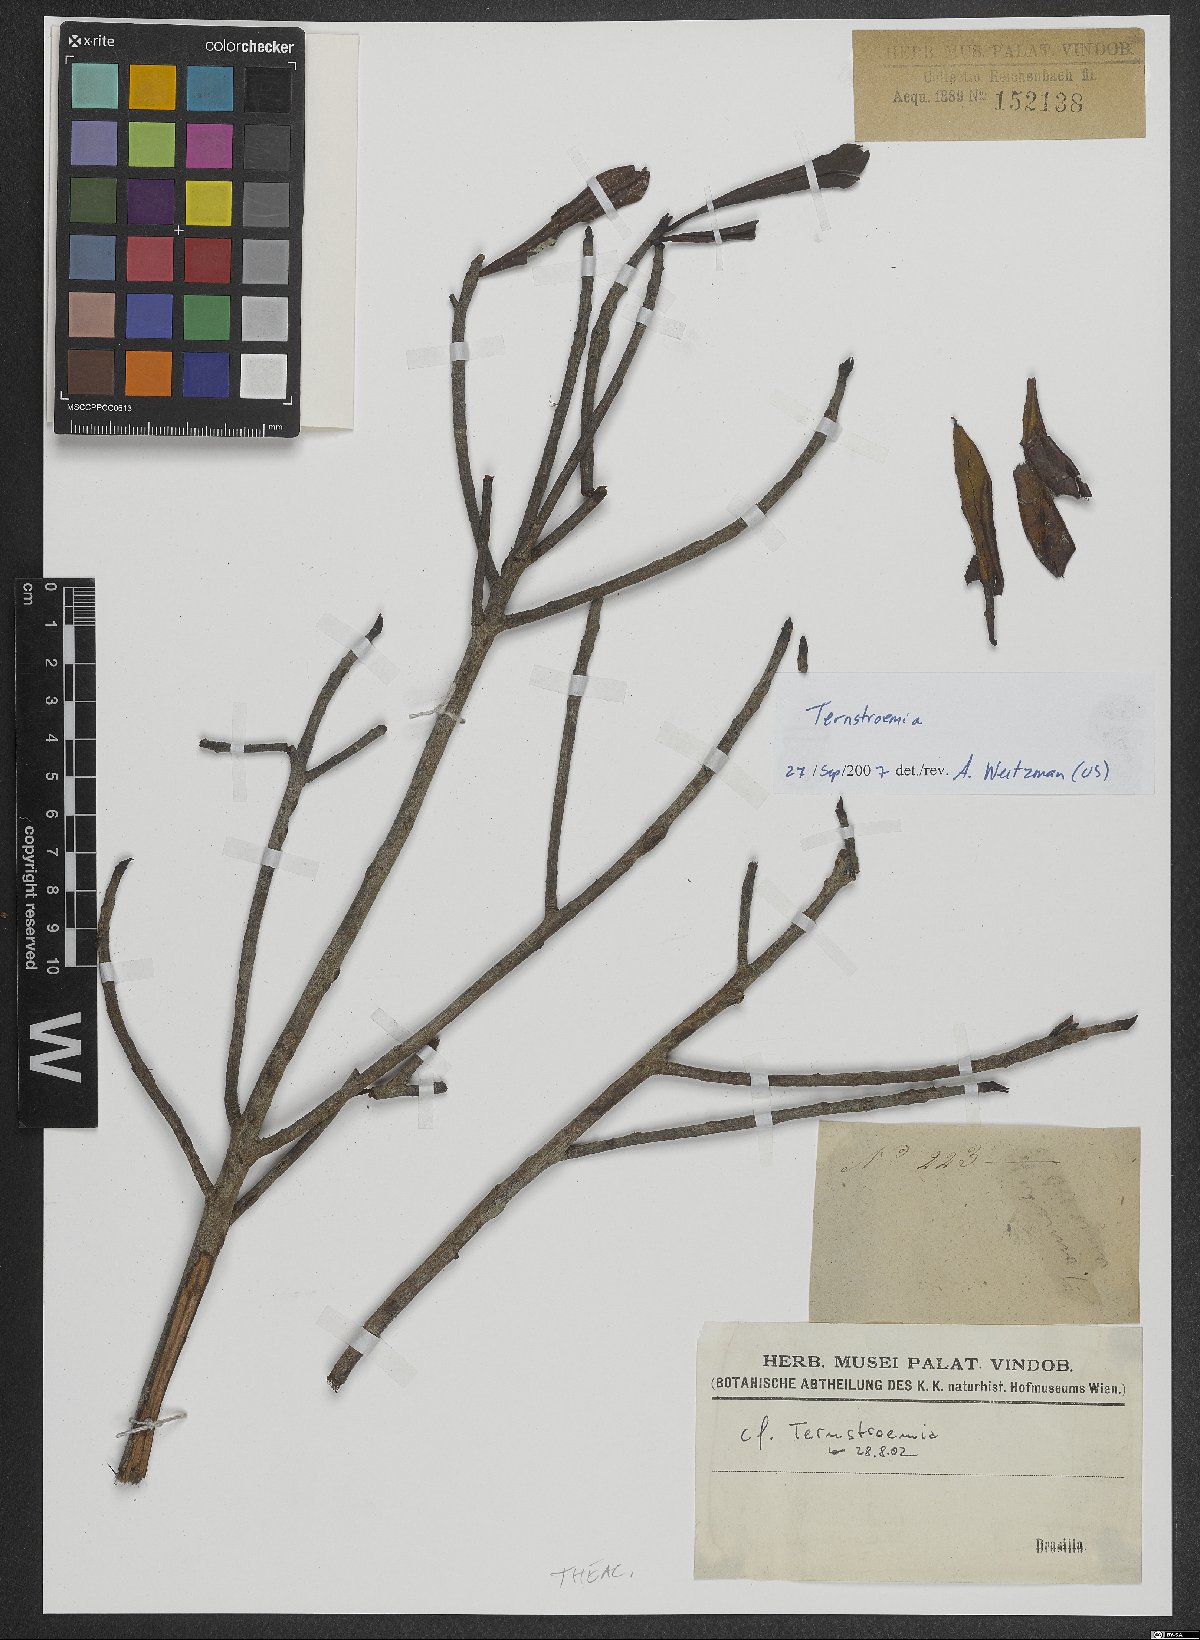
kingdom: Plantae
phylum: Tracheophyta
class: Magnoliopsida
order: Ericales
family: Pentaphylacaceae
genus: Ternstroemia
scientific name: Ternstroemia
